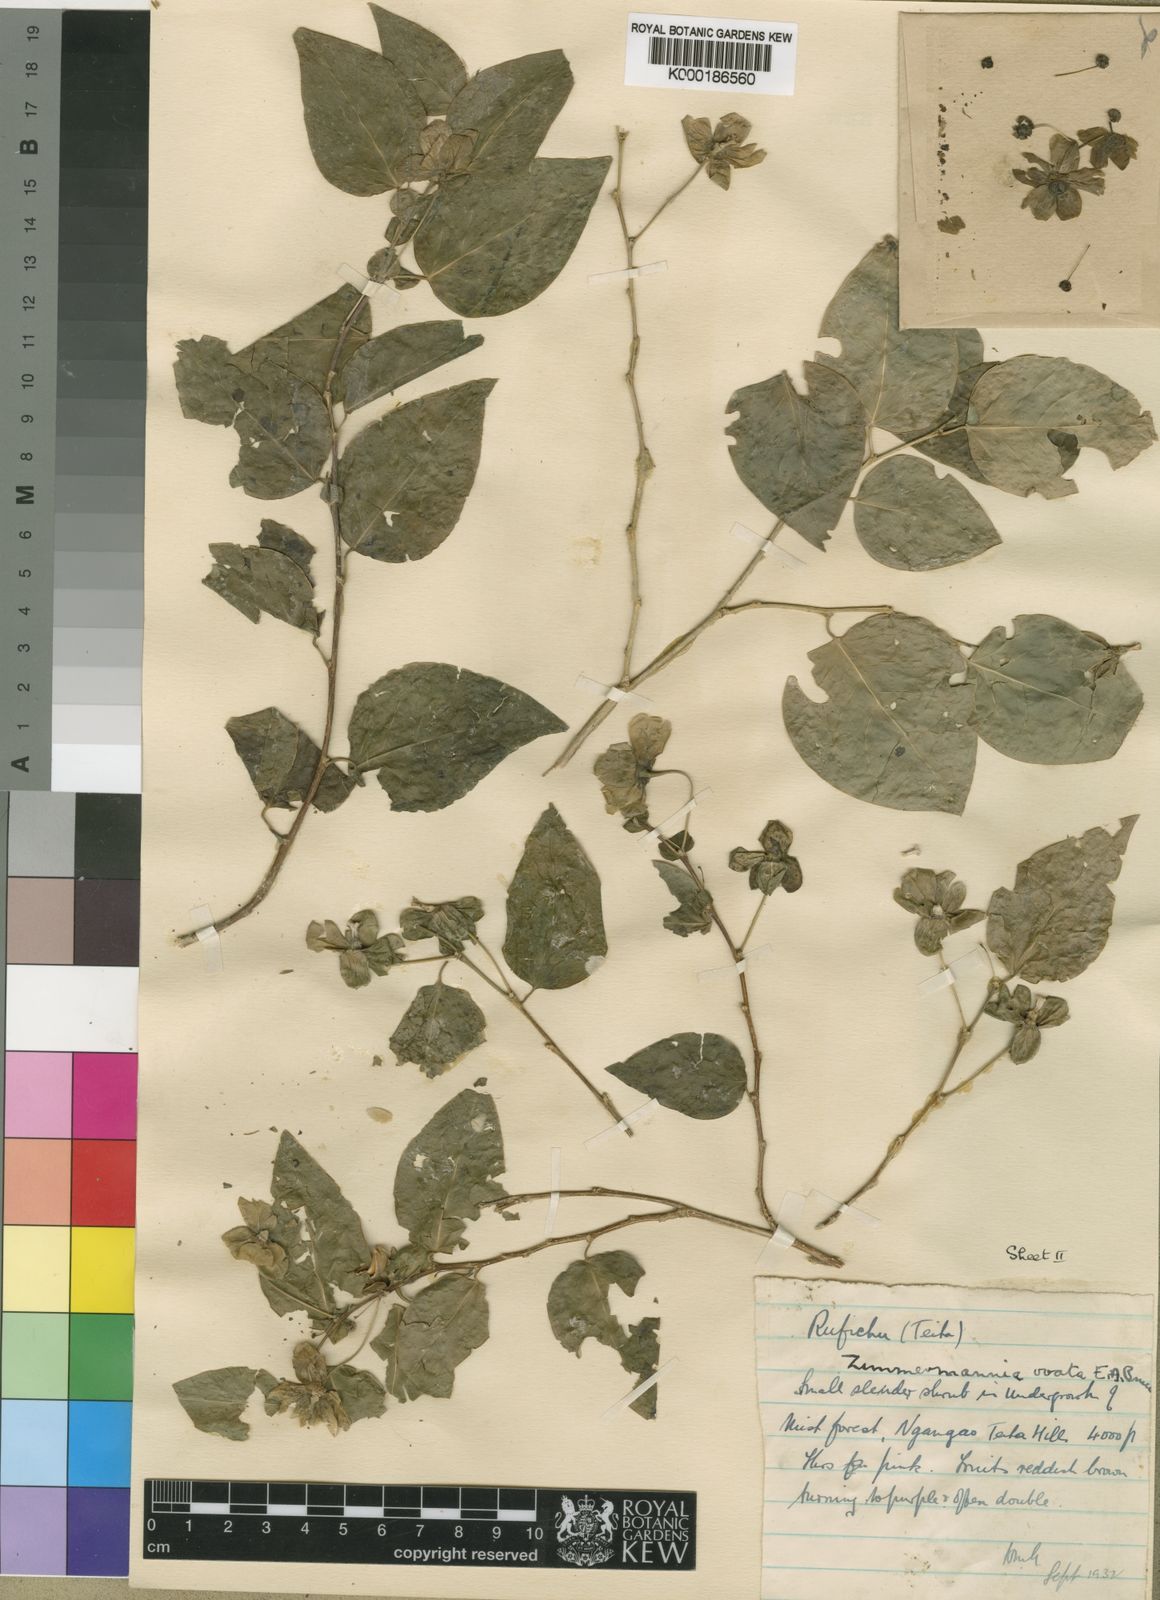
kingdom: Plantae
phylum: Tracheophyta
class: Magnoliopsida
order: Malpighiales
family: Phyllanthaceae
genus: Meineckia
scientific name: Meineckia ovata
